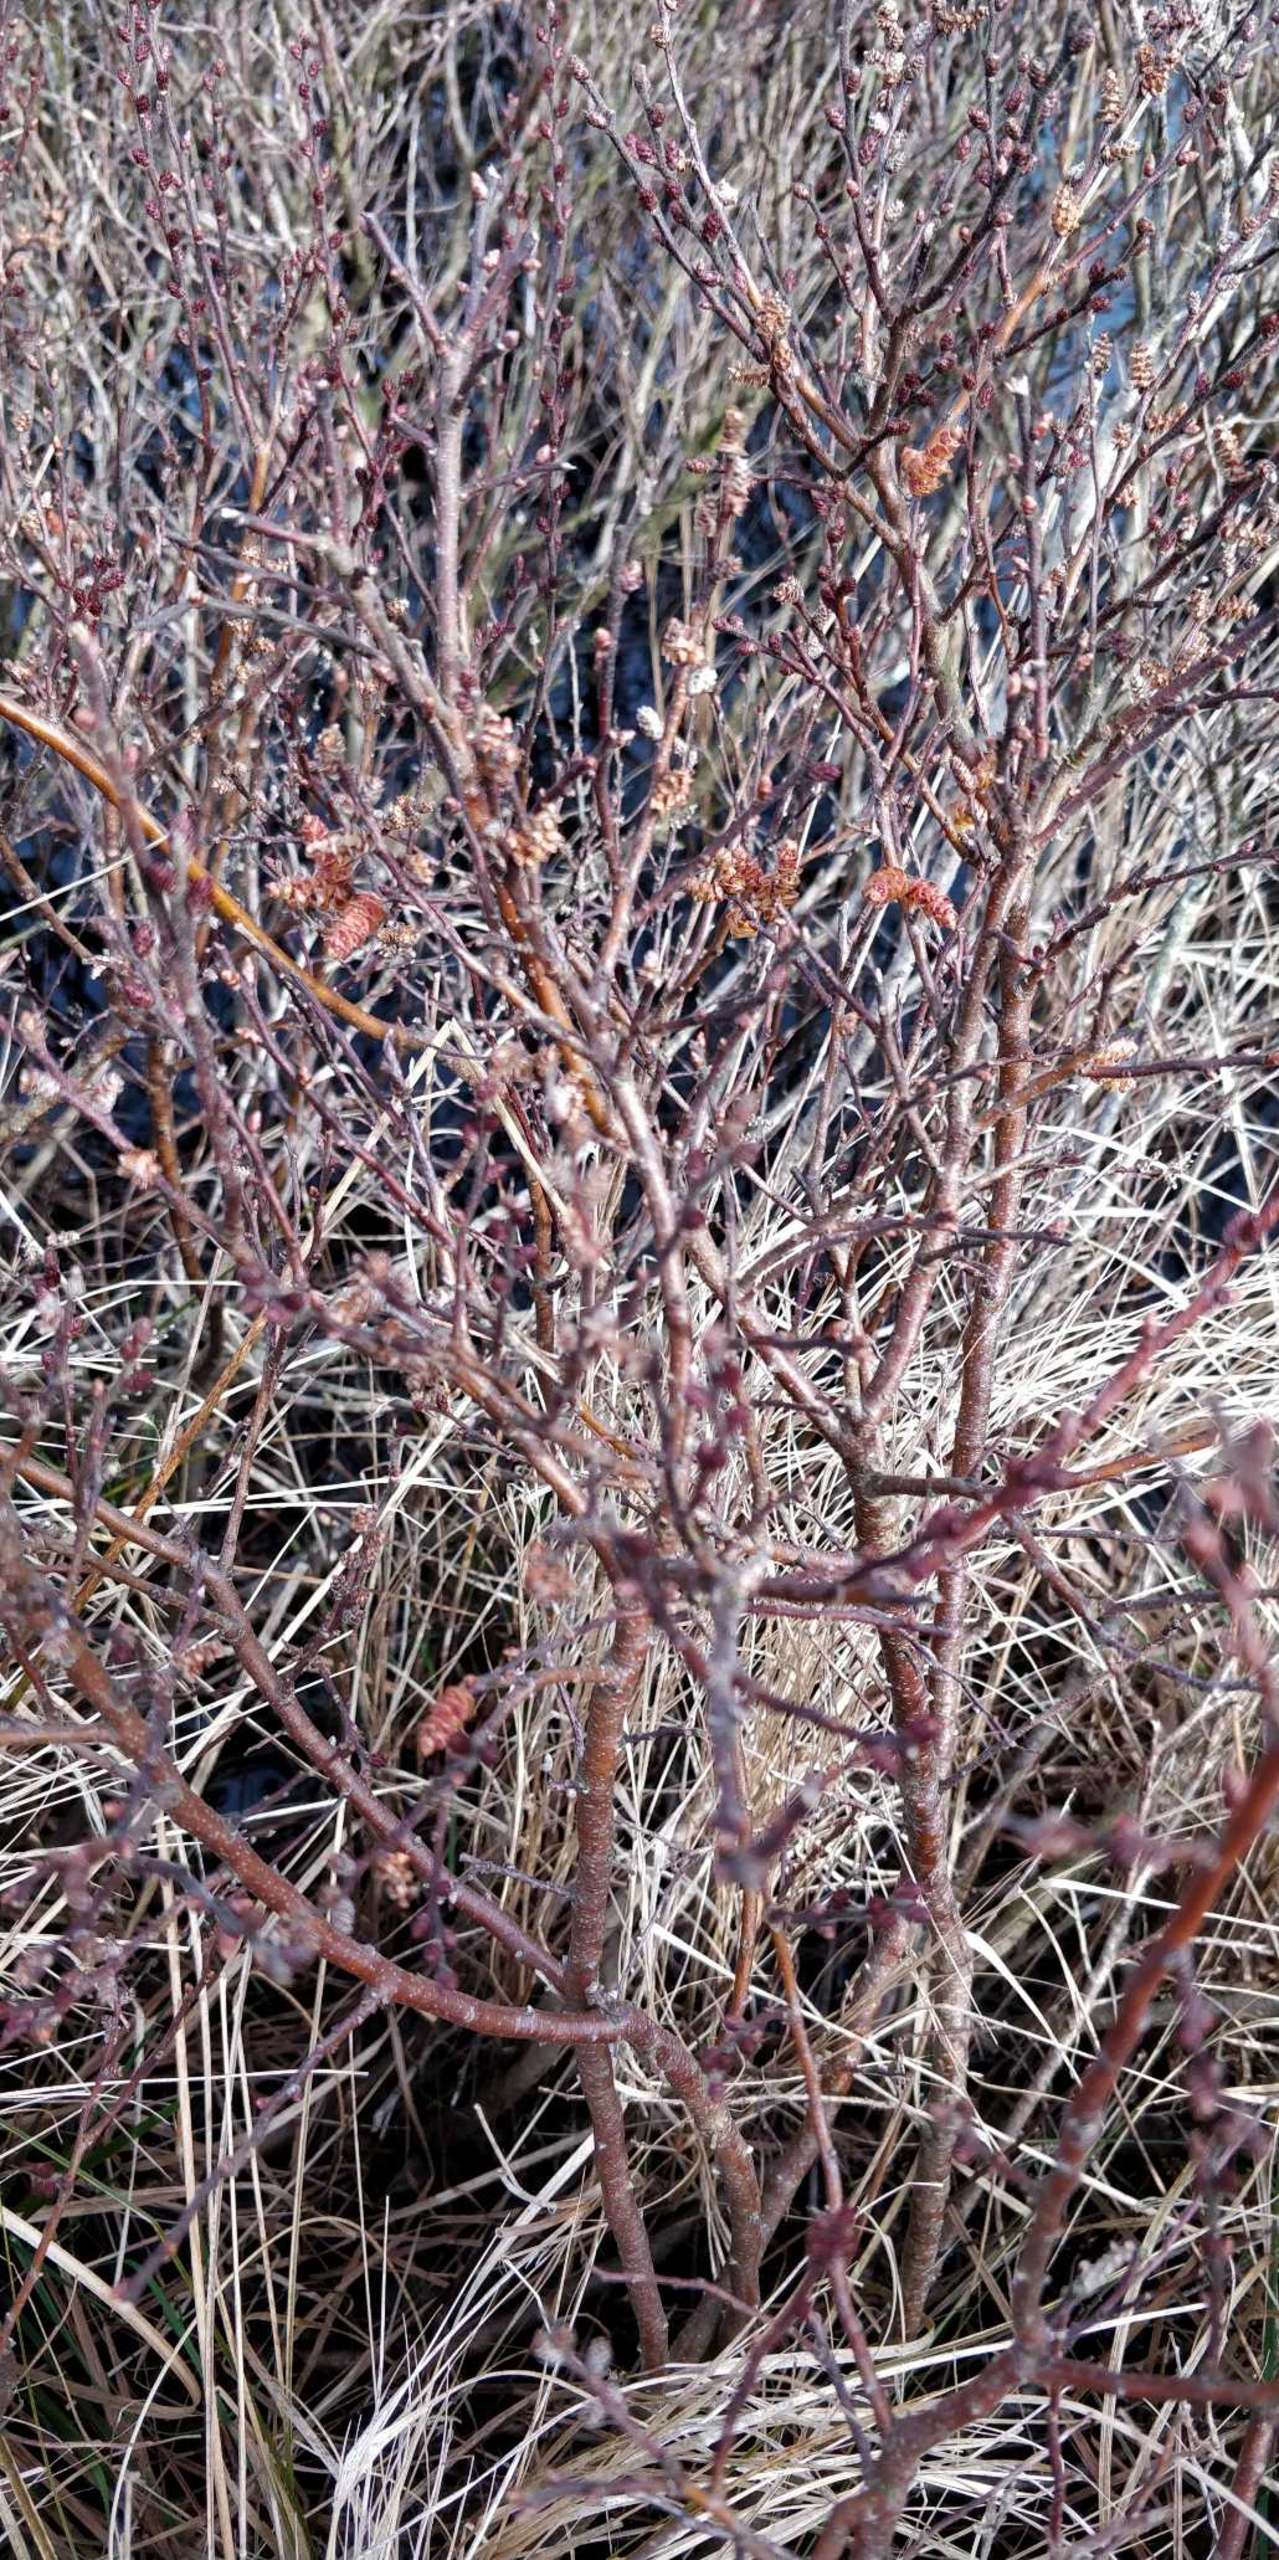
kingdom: Plantae
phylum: Tracheophyta
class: Magnoliopsida
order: Fagales
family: Myricaceae
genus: Myrica
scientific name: Myrica gale
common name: Pors
